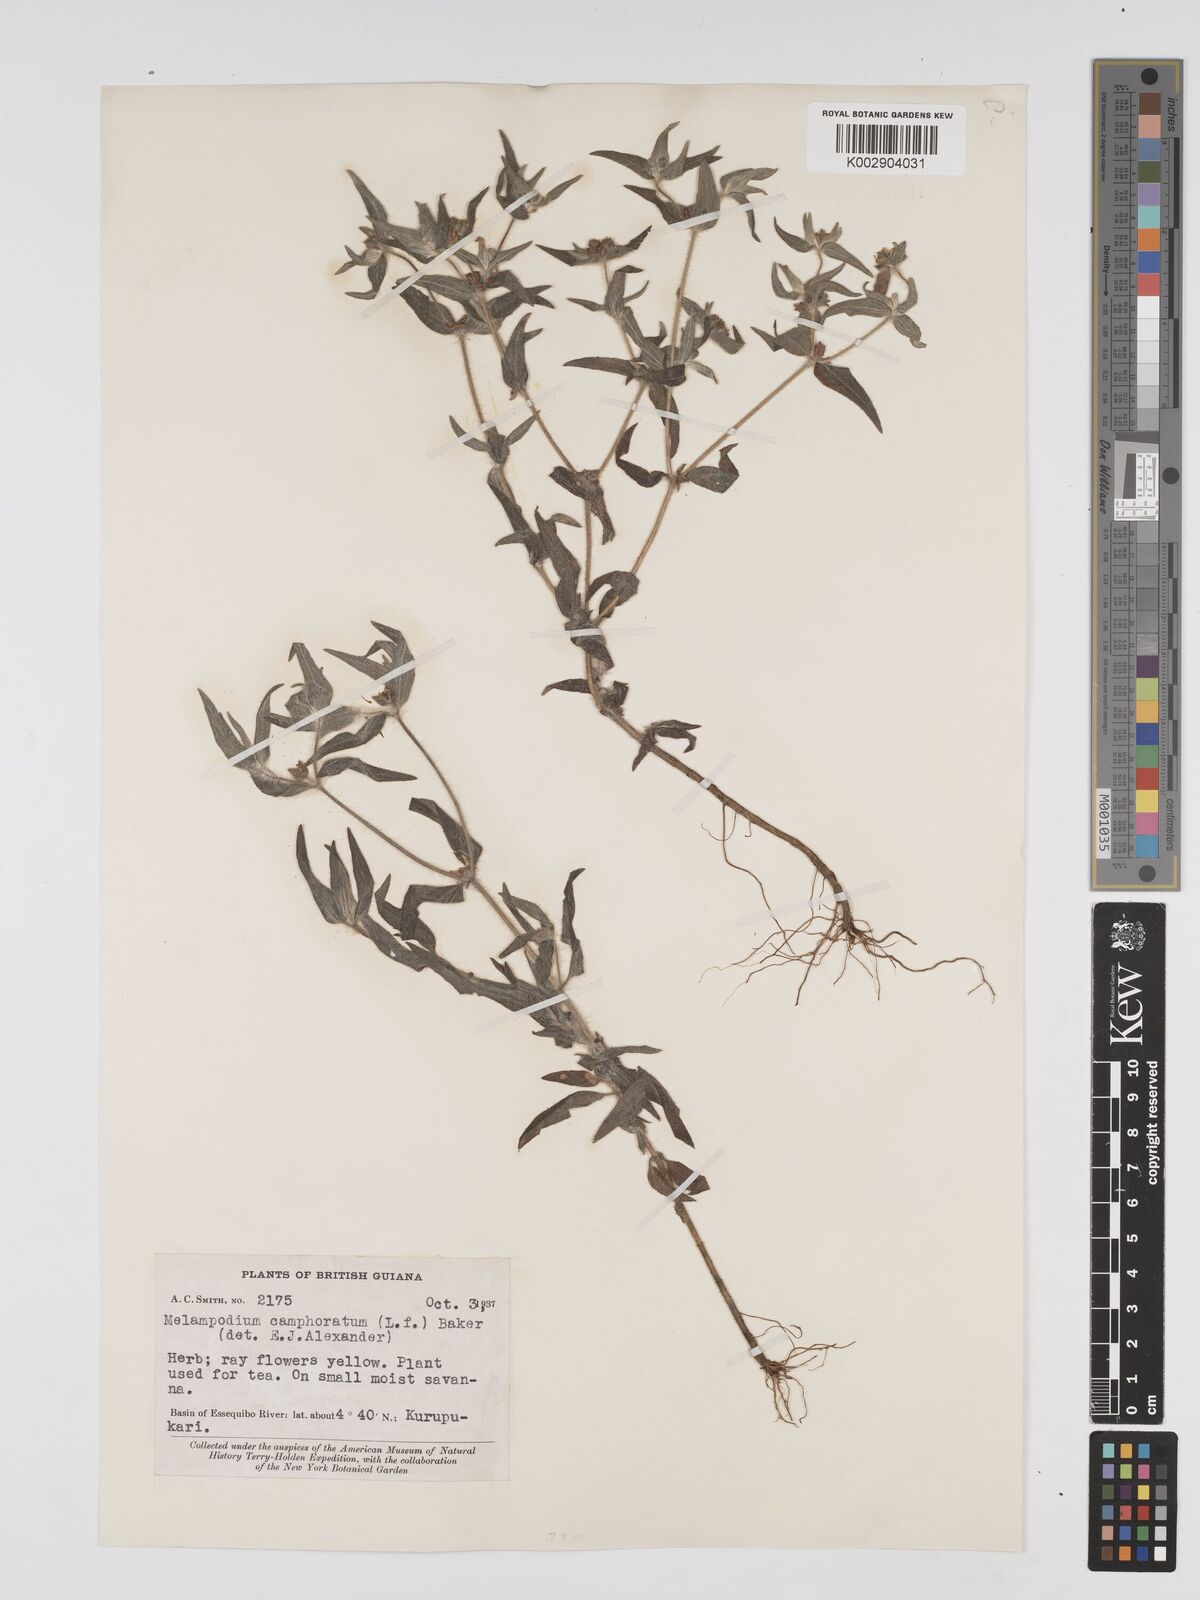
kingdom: Plantae
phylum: Tracheophyta
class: Magnoliopsida
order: Asterales
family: Asteraceae
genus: Unxia
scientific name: Unxia camphorata
